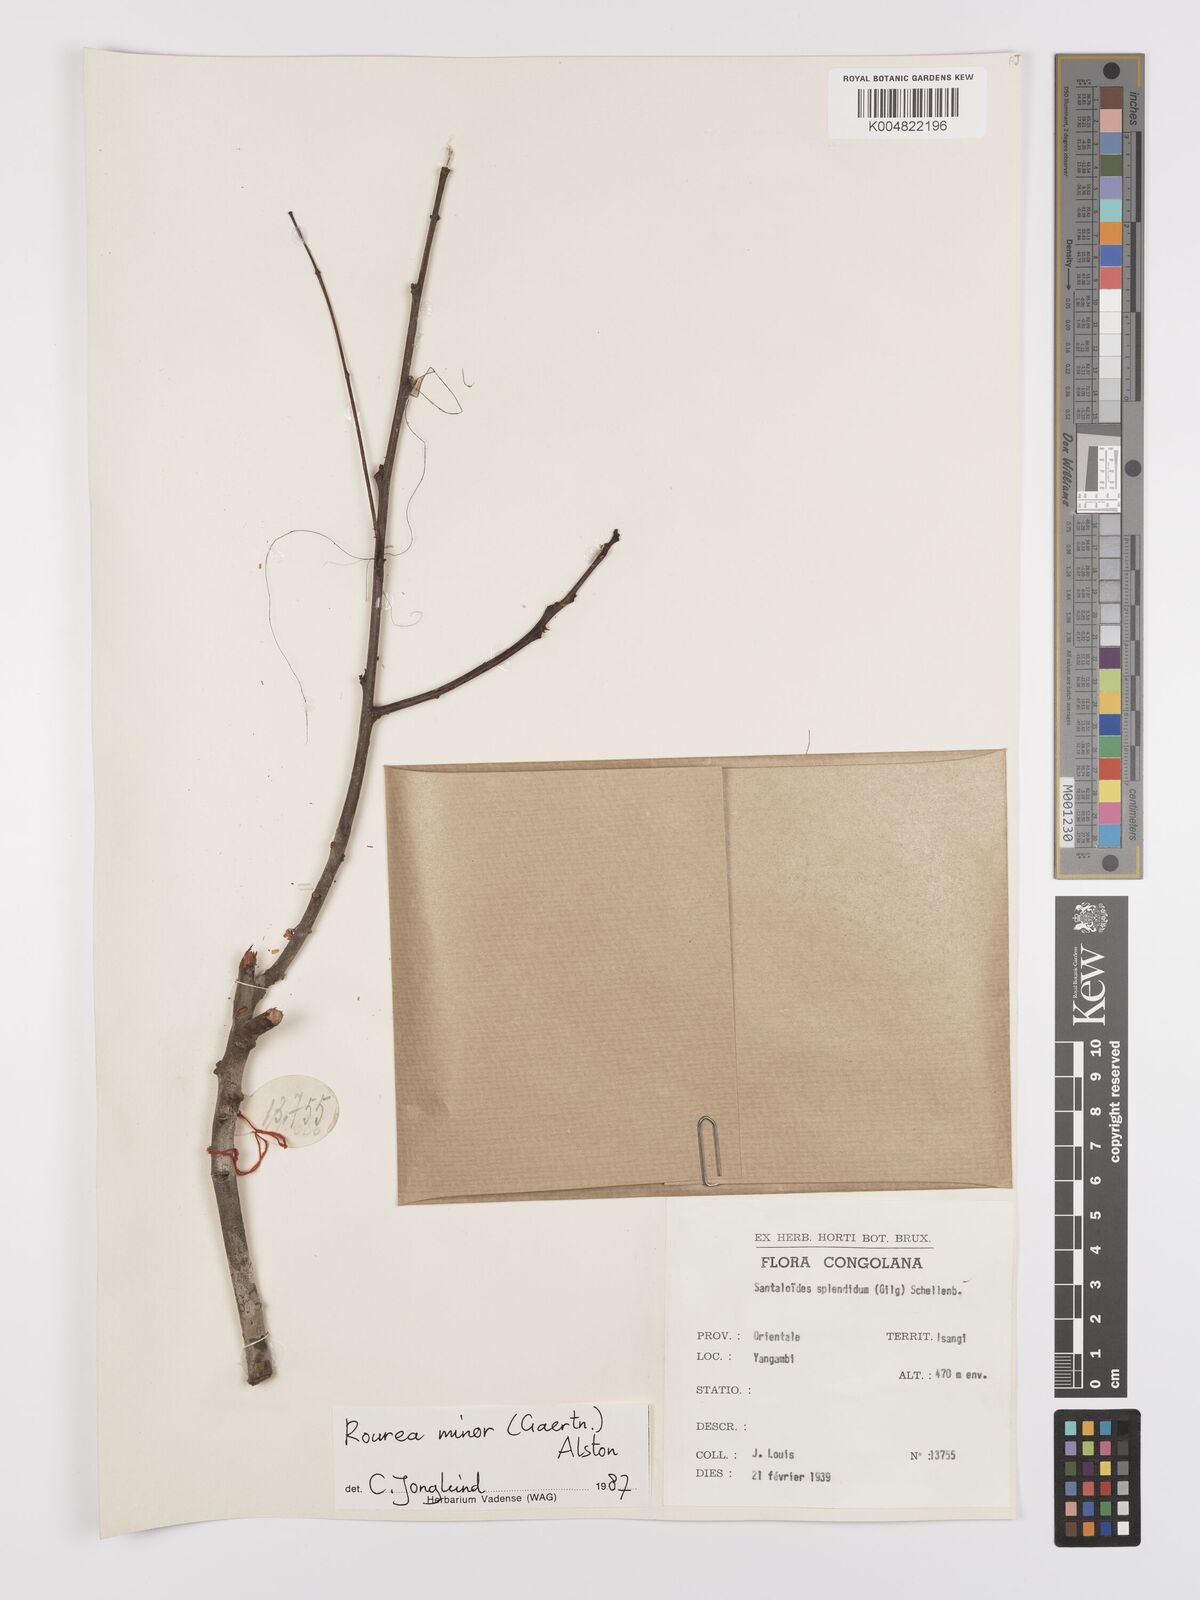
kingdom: Plantae
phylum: Tracheophyta
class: Magnoliopsida
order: Oxalidales
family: Connaraceae
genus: Rourea
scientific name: Rourea minor
